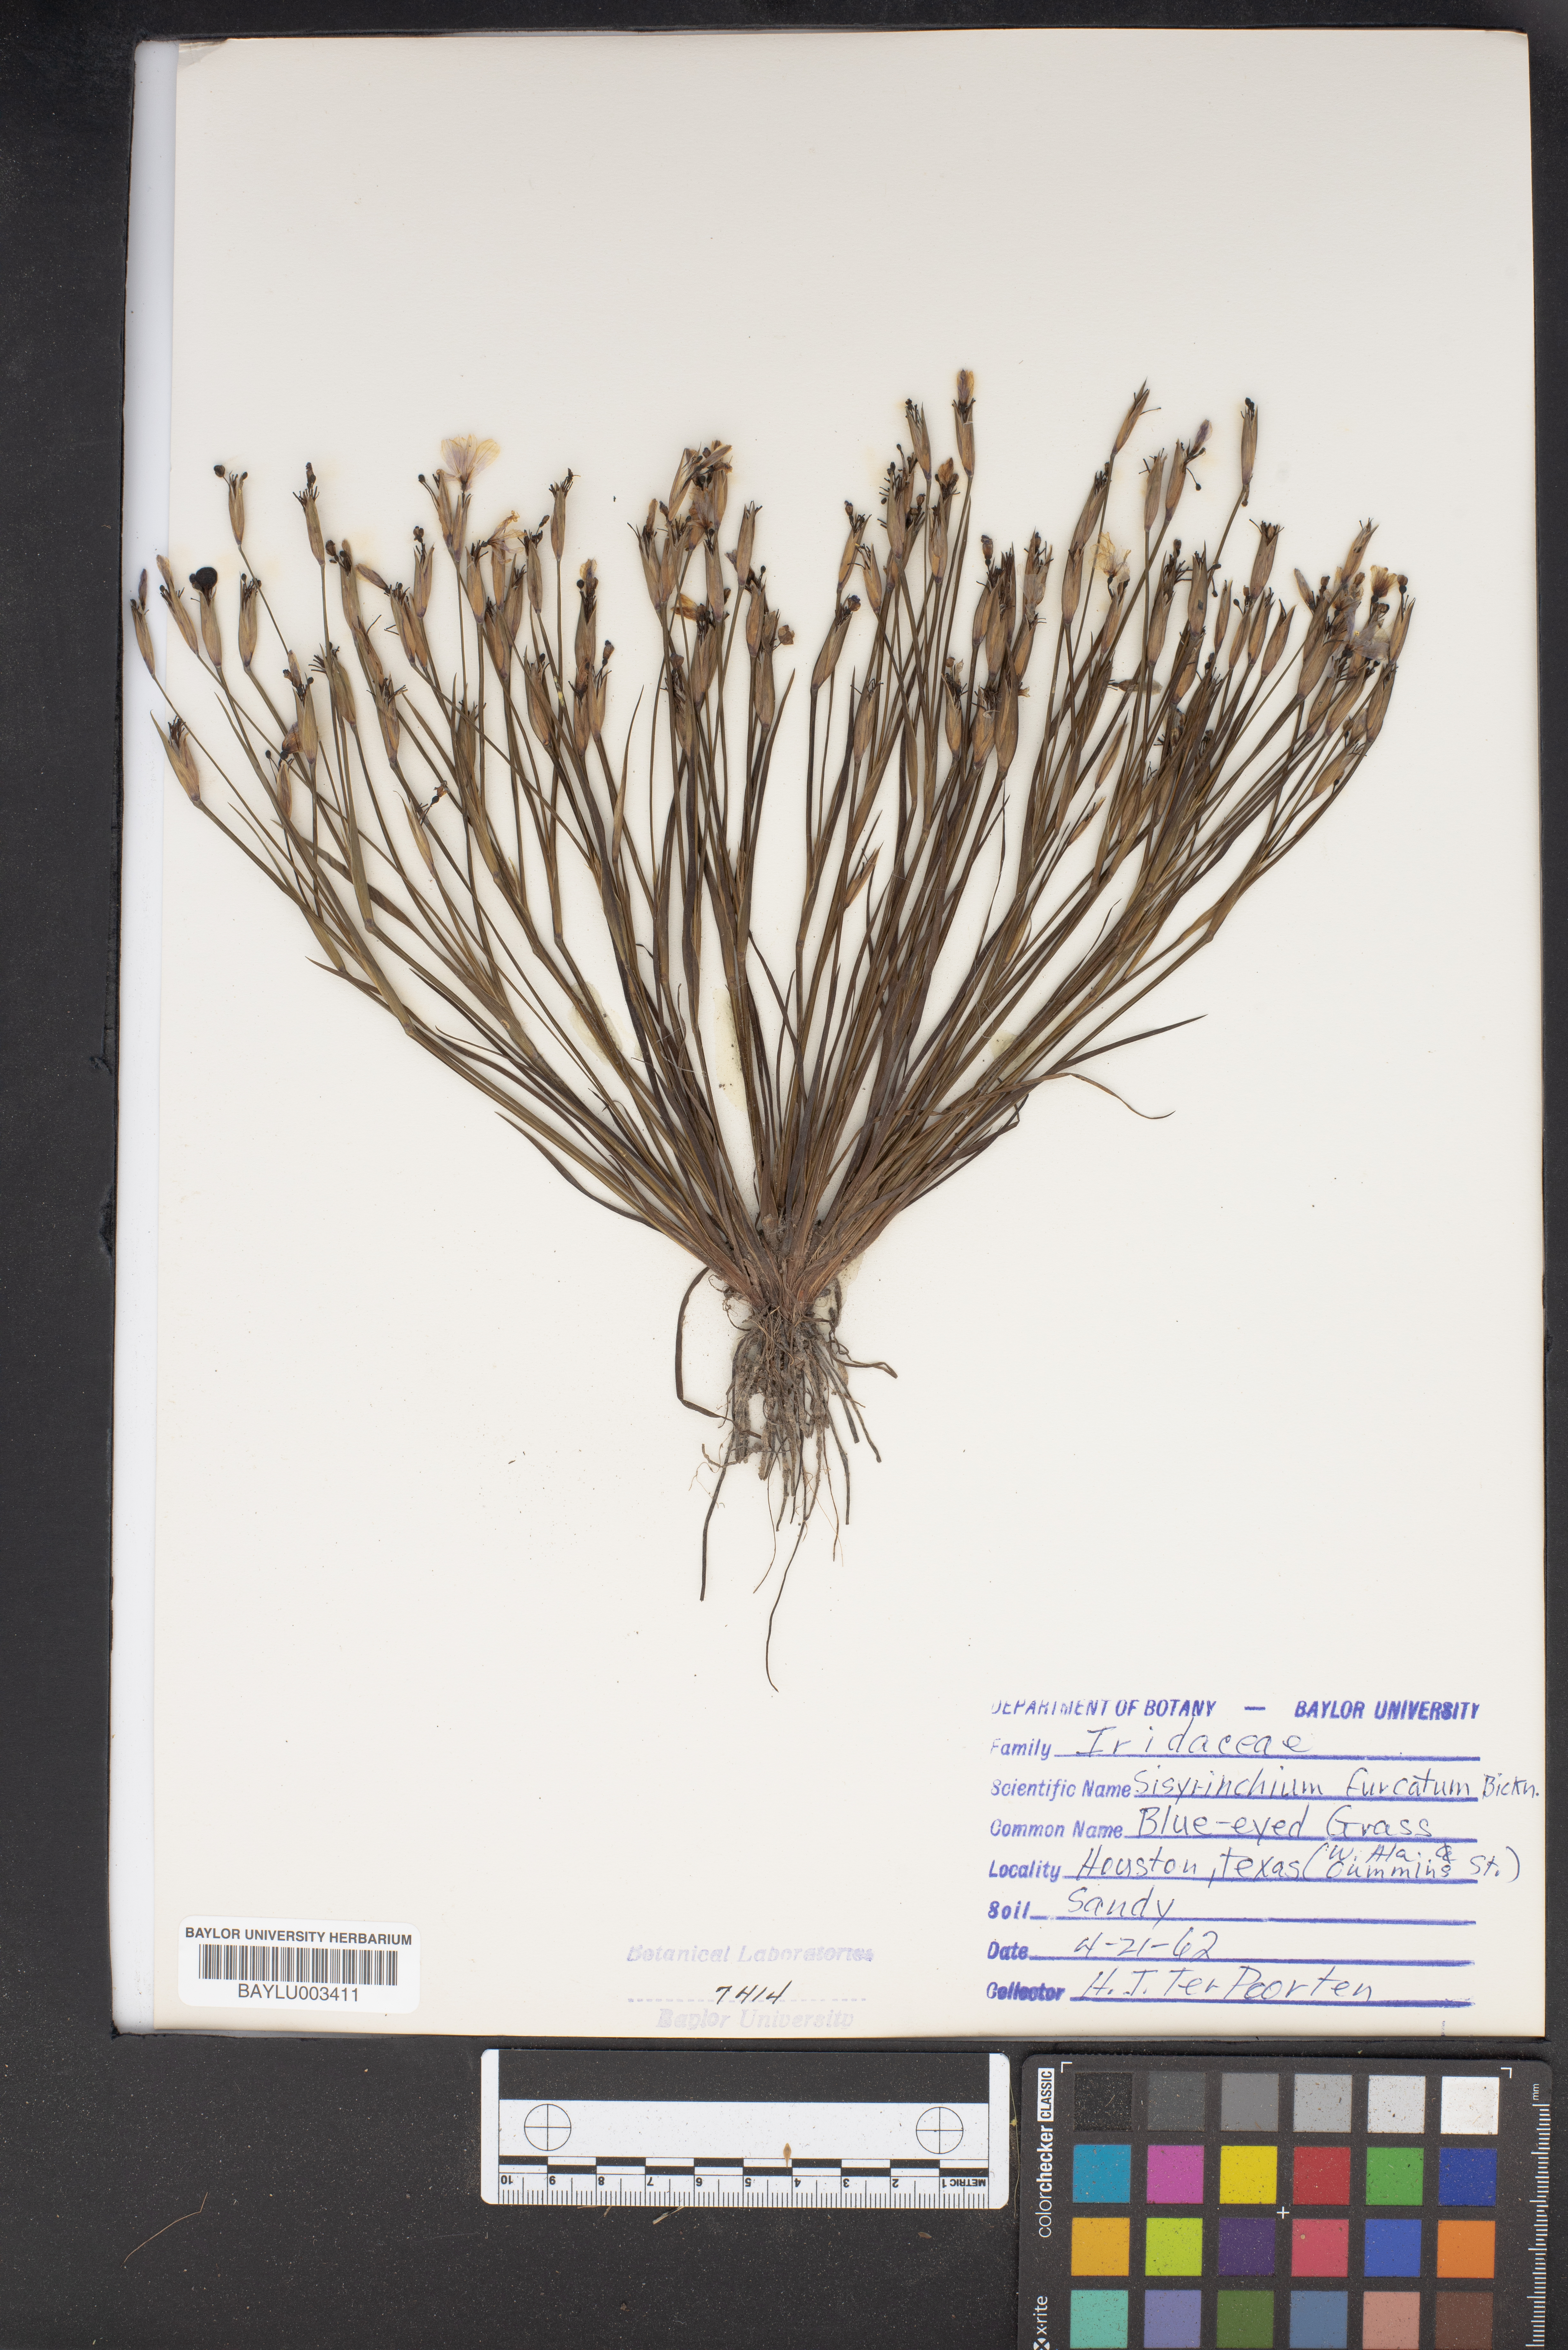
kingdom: Plantae
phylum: Tracheophyta
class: Liliopsida
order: Asparagales
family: Iridaceae
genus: Sisyrinchium
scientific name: Sisyrinchium fuscatum
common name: Coastal plain blue-eyed-grass
